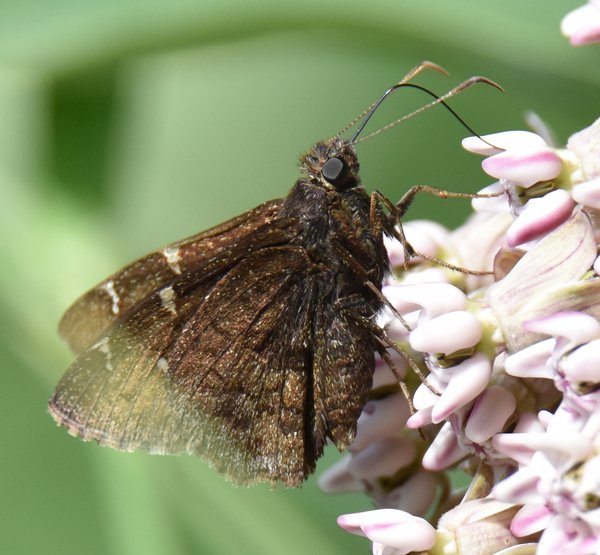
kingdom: Animalia
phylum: Arthropoda
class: Insecta
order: Lepidoptera
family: Hesperiidae
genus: Autochton
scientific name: Autochton
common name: Northern Cloudywing
